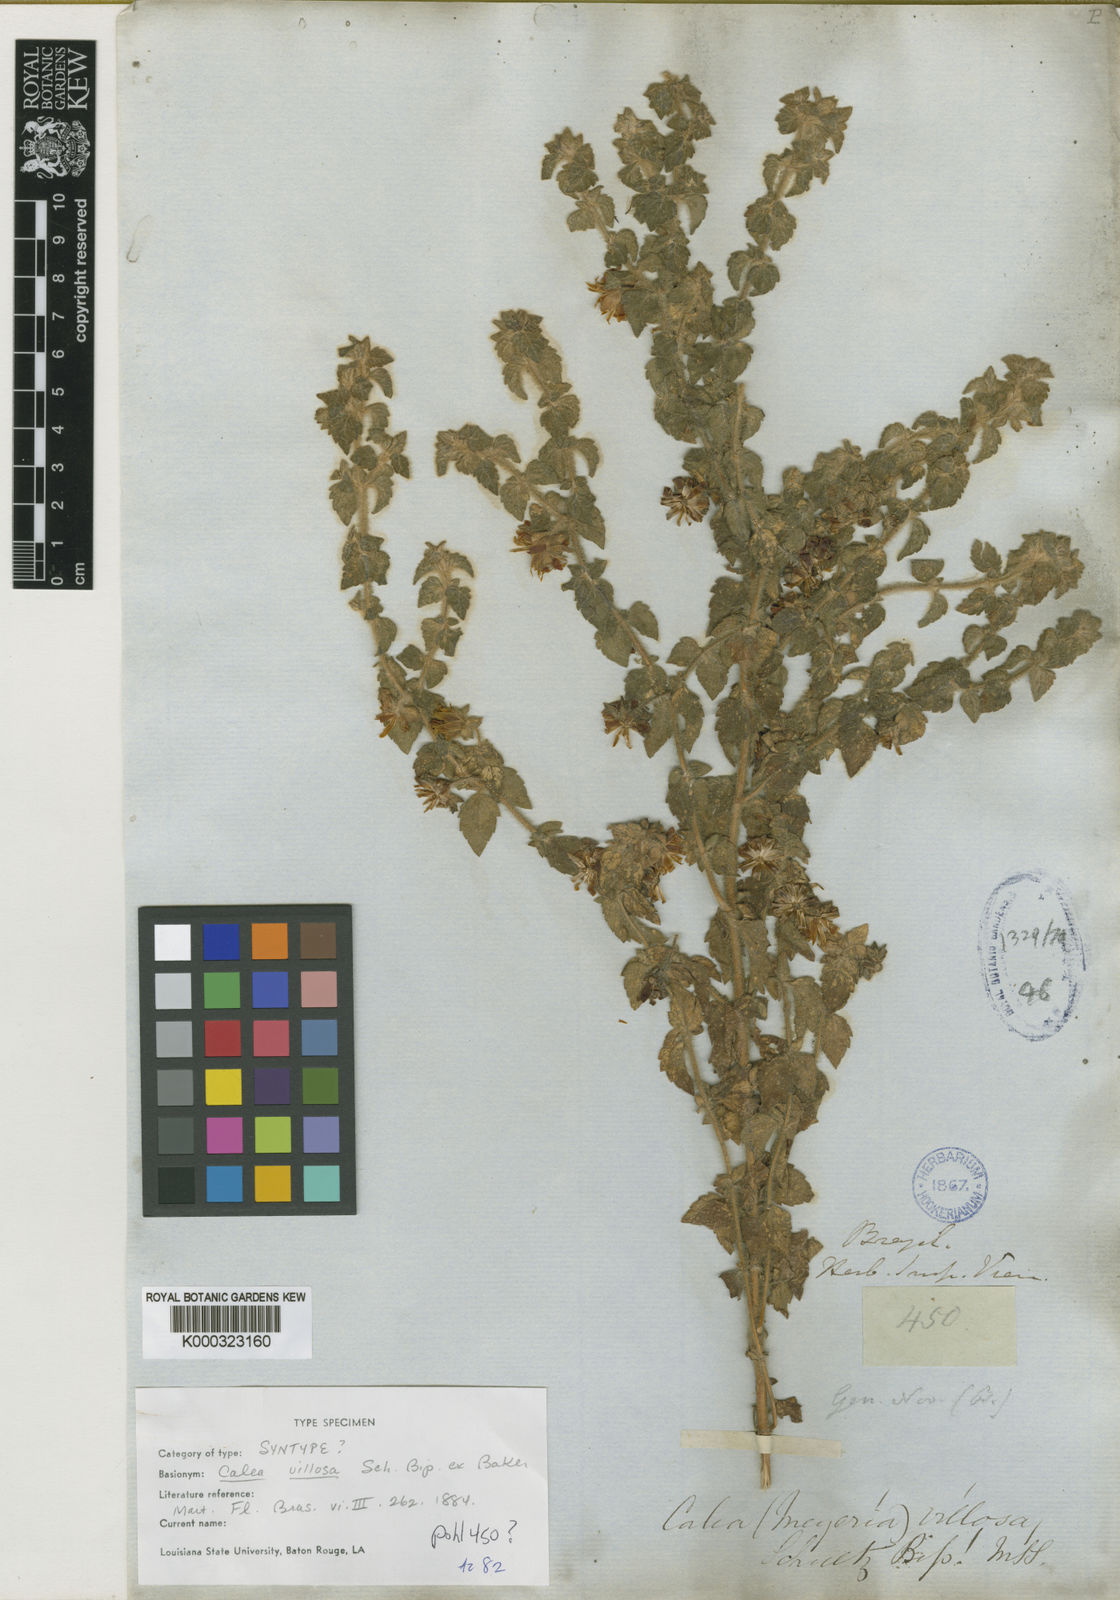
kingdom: Plantae
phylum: Tracheophyta
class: Magnoliopsida
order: Asterales
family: Asteraceae
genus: Calea
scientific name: Calea villosa
